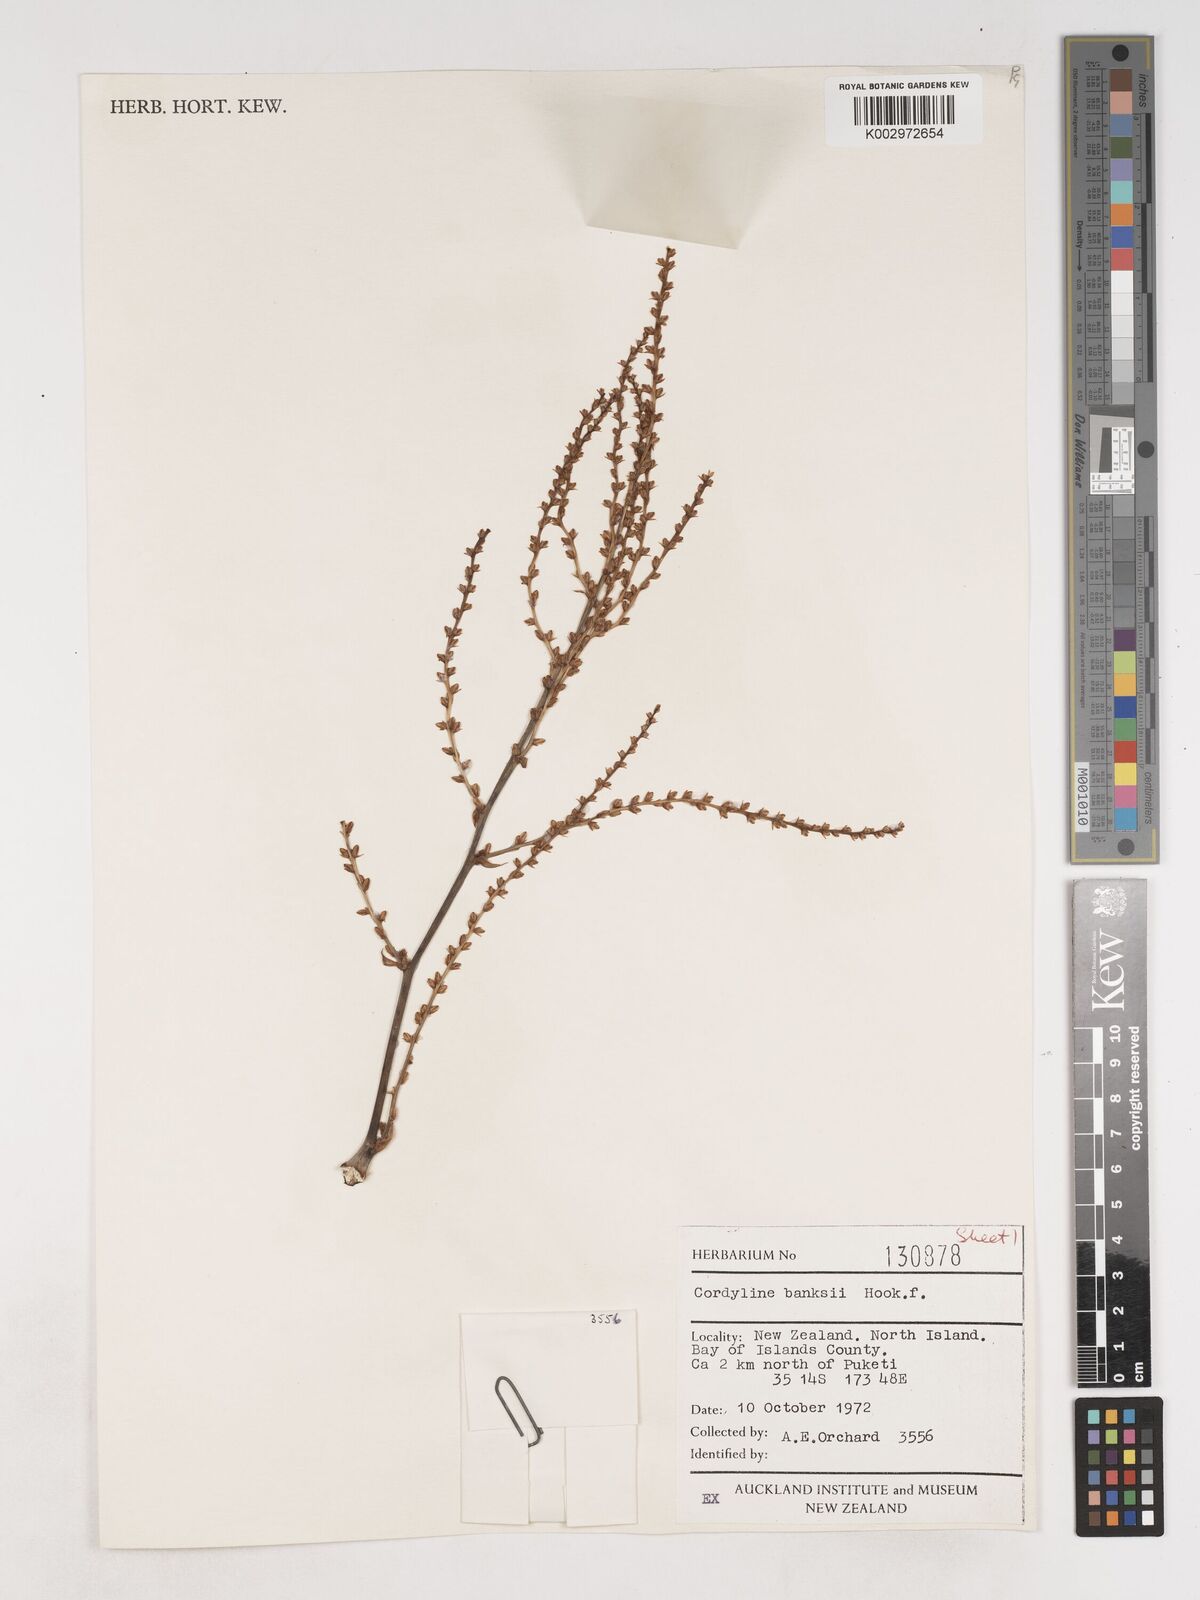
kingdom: Plantae
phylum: Tracheophyta
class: Liliopsida
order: Asparagales
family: Asparagaceae
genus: Cordyline
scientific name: Cordyline banksii
